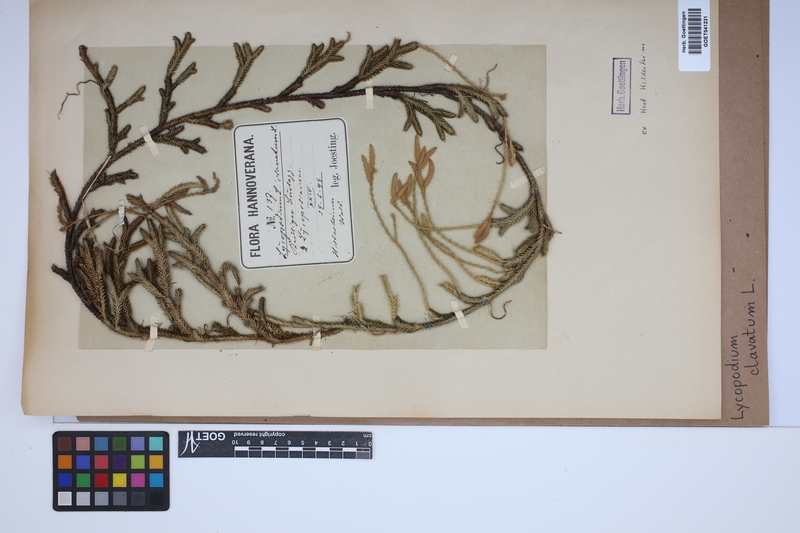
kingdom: Plantae
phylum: Tracheophyta
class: Lycopodiopsida
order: Lycopodiales
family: Lycopodiaceae
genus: Lycopodium
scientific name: Lycopodium clavatum
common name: Stag's-horn clubmoss
